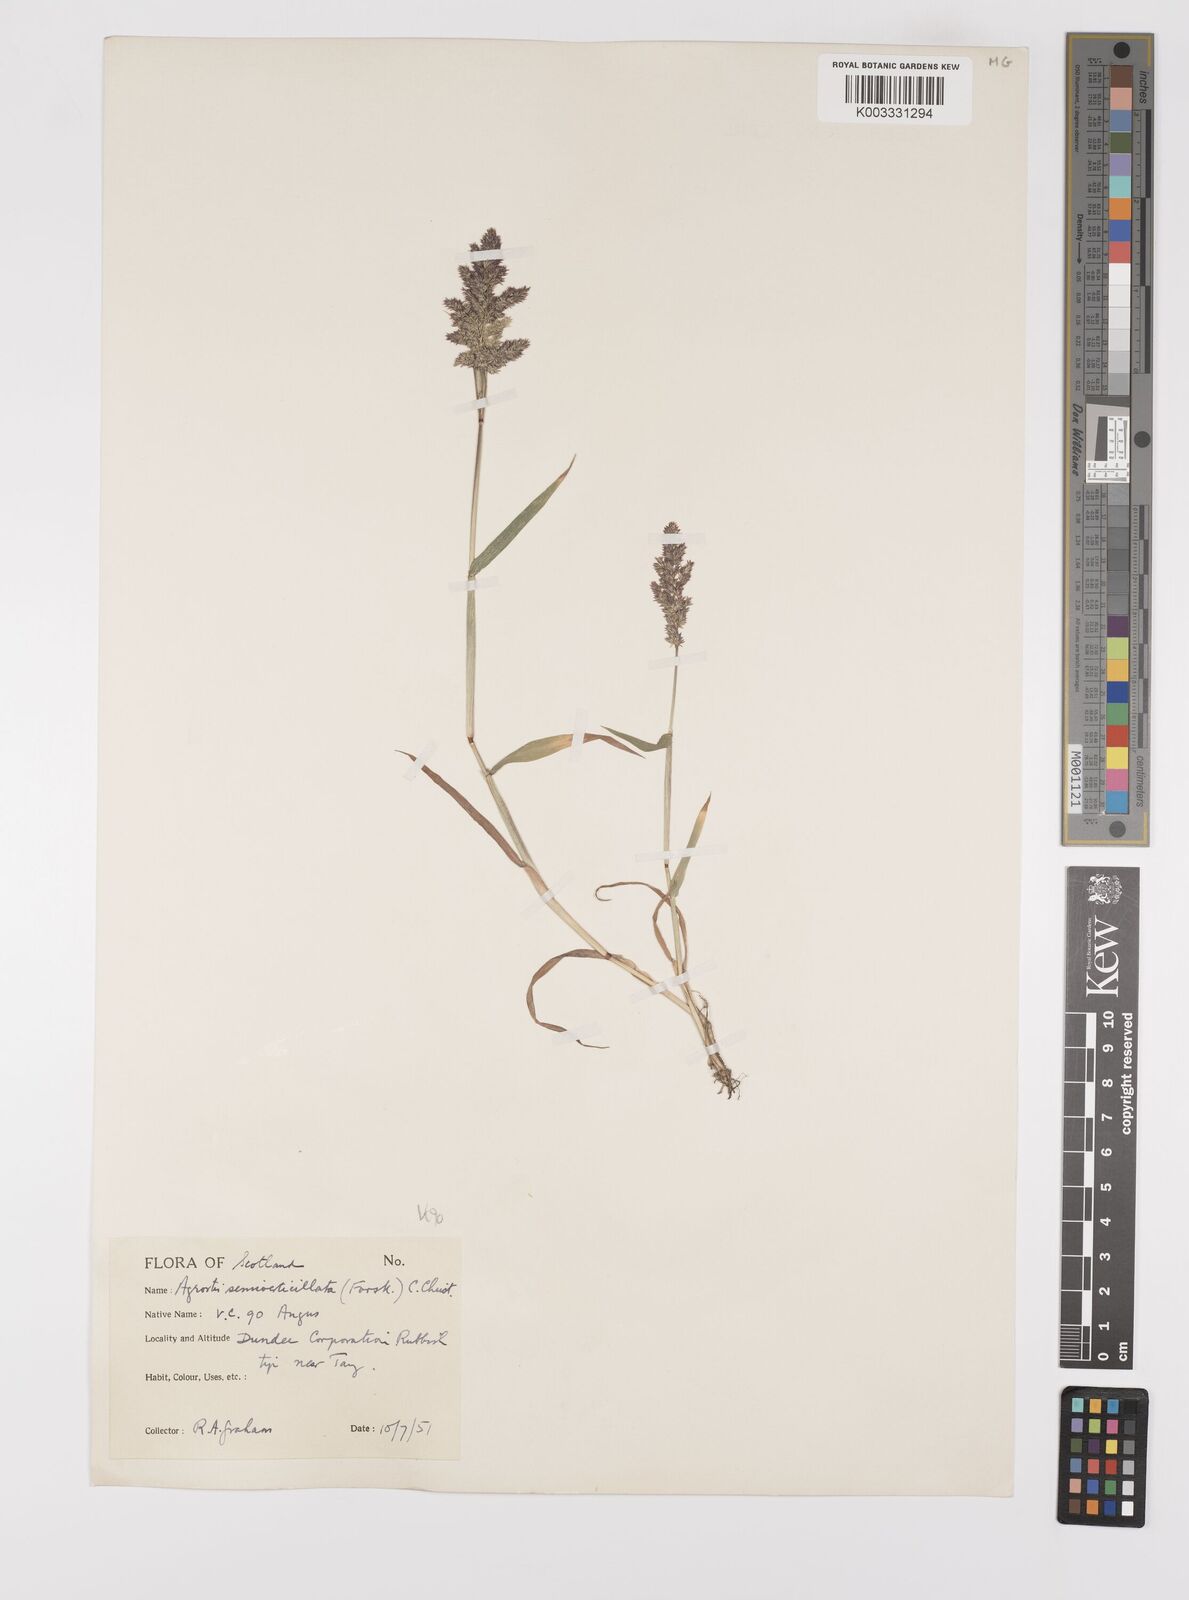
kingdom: Plantae
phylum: Tracheophyta
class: Liliopsida
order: Poales
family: Poaceae
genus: Polypogon
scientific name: Polypogon viridis
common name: Water bent
